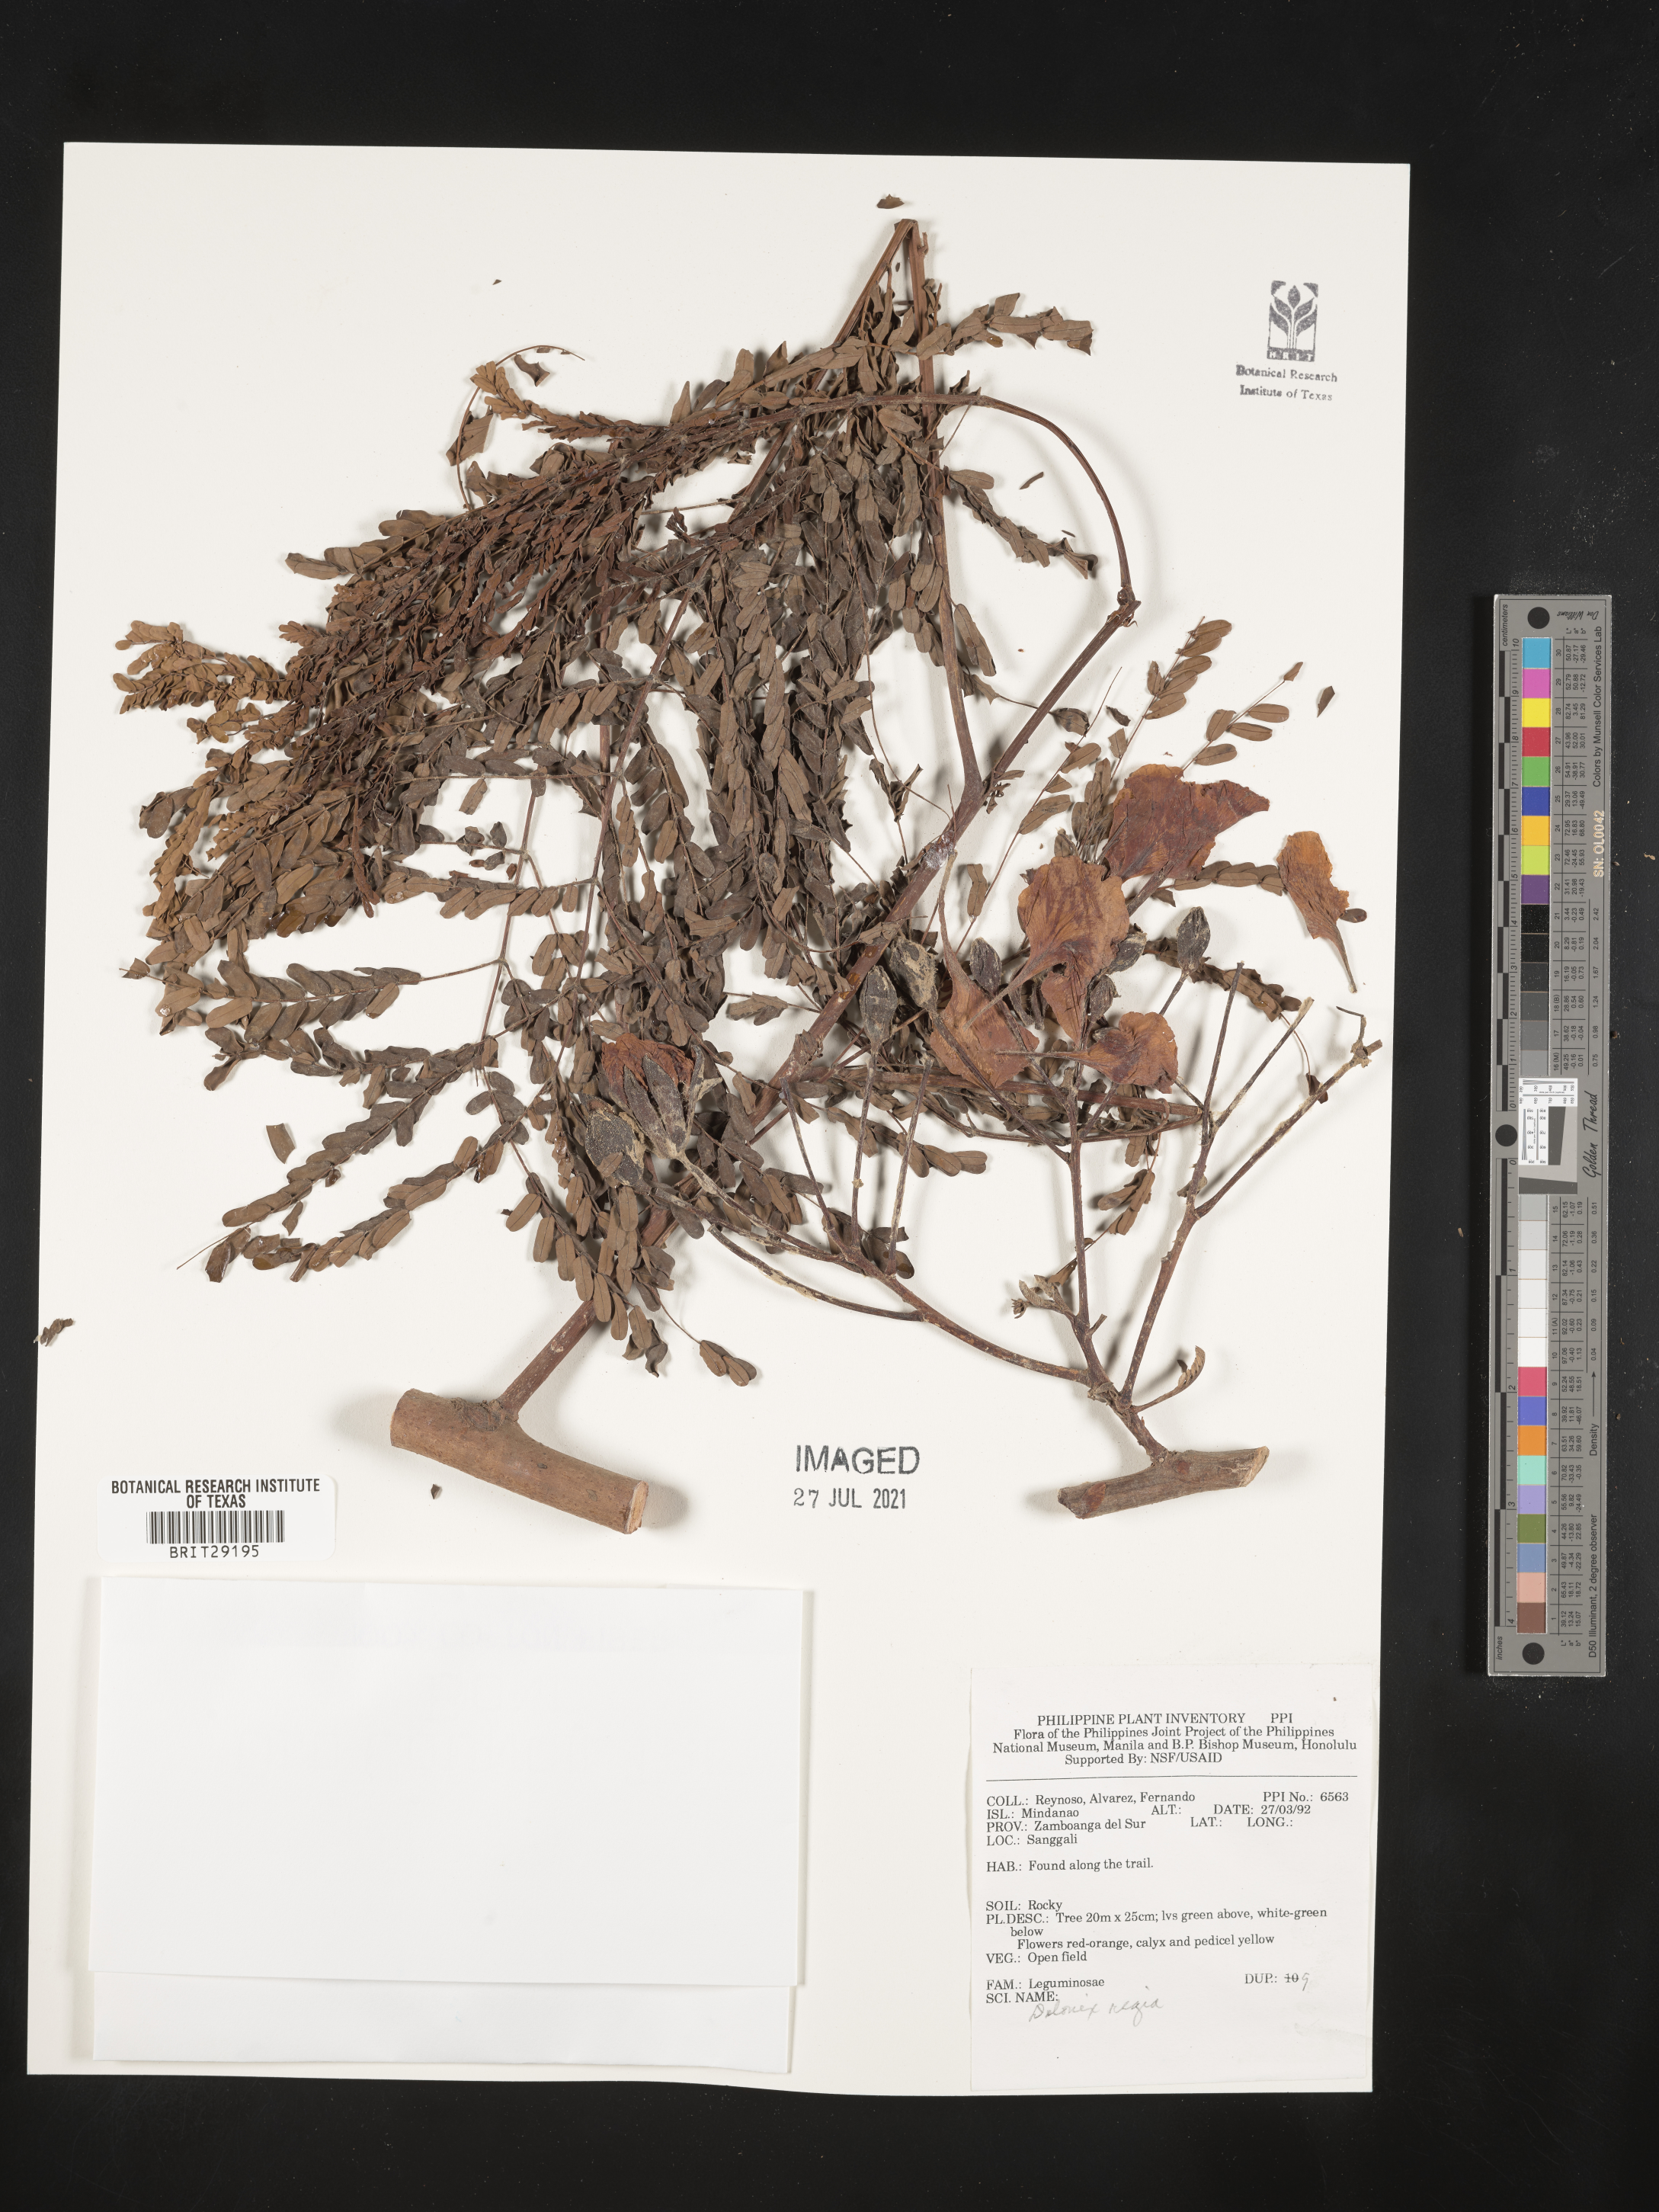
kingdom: Plantae
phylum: Tracheophyta
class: Magnoliopsida
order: Fabales
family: Fabaceae
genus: Delonix
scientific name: Delonix regia
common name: Royal poinciana
